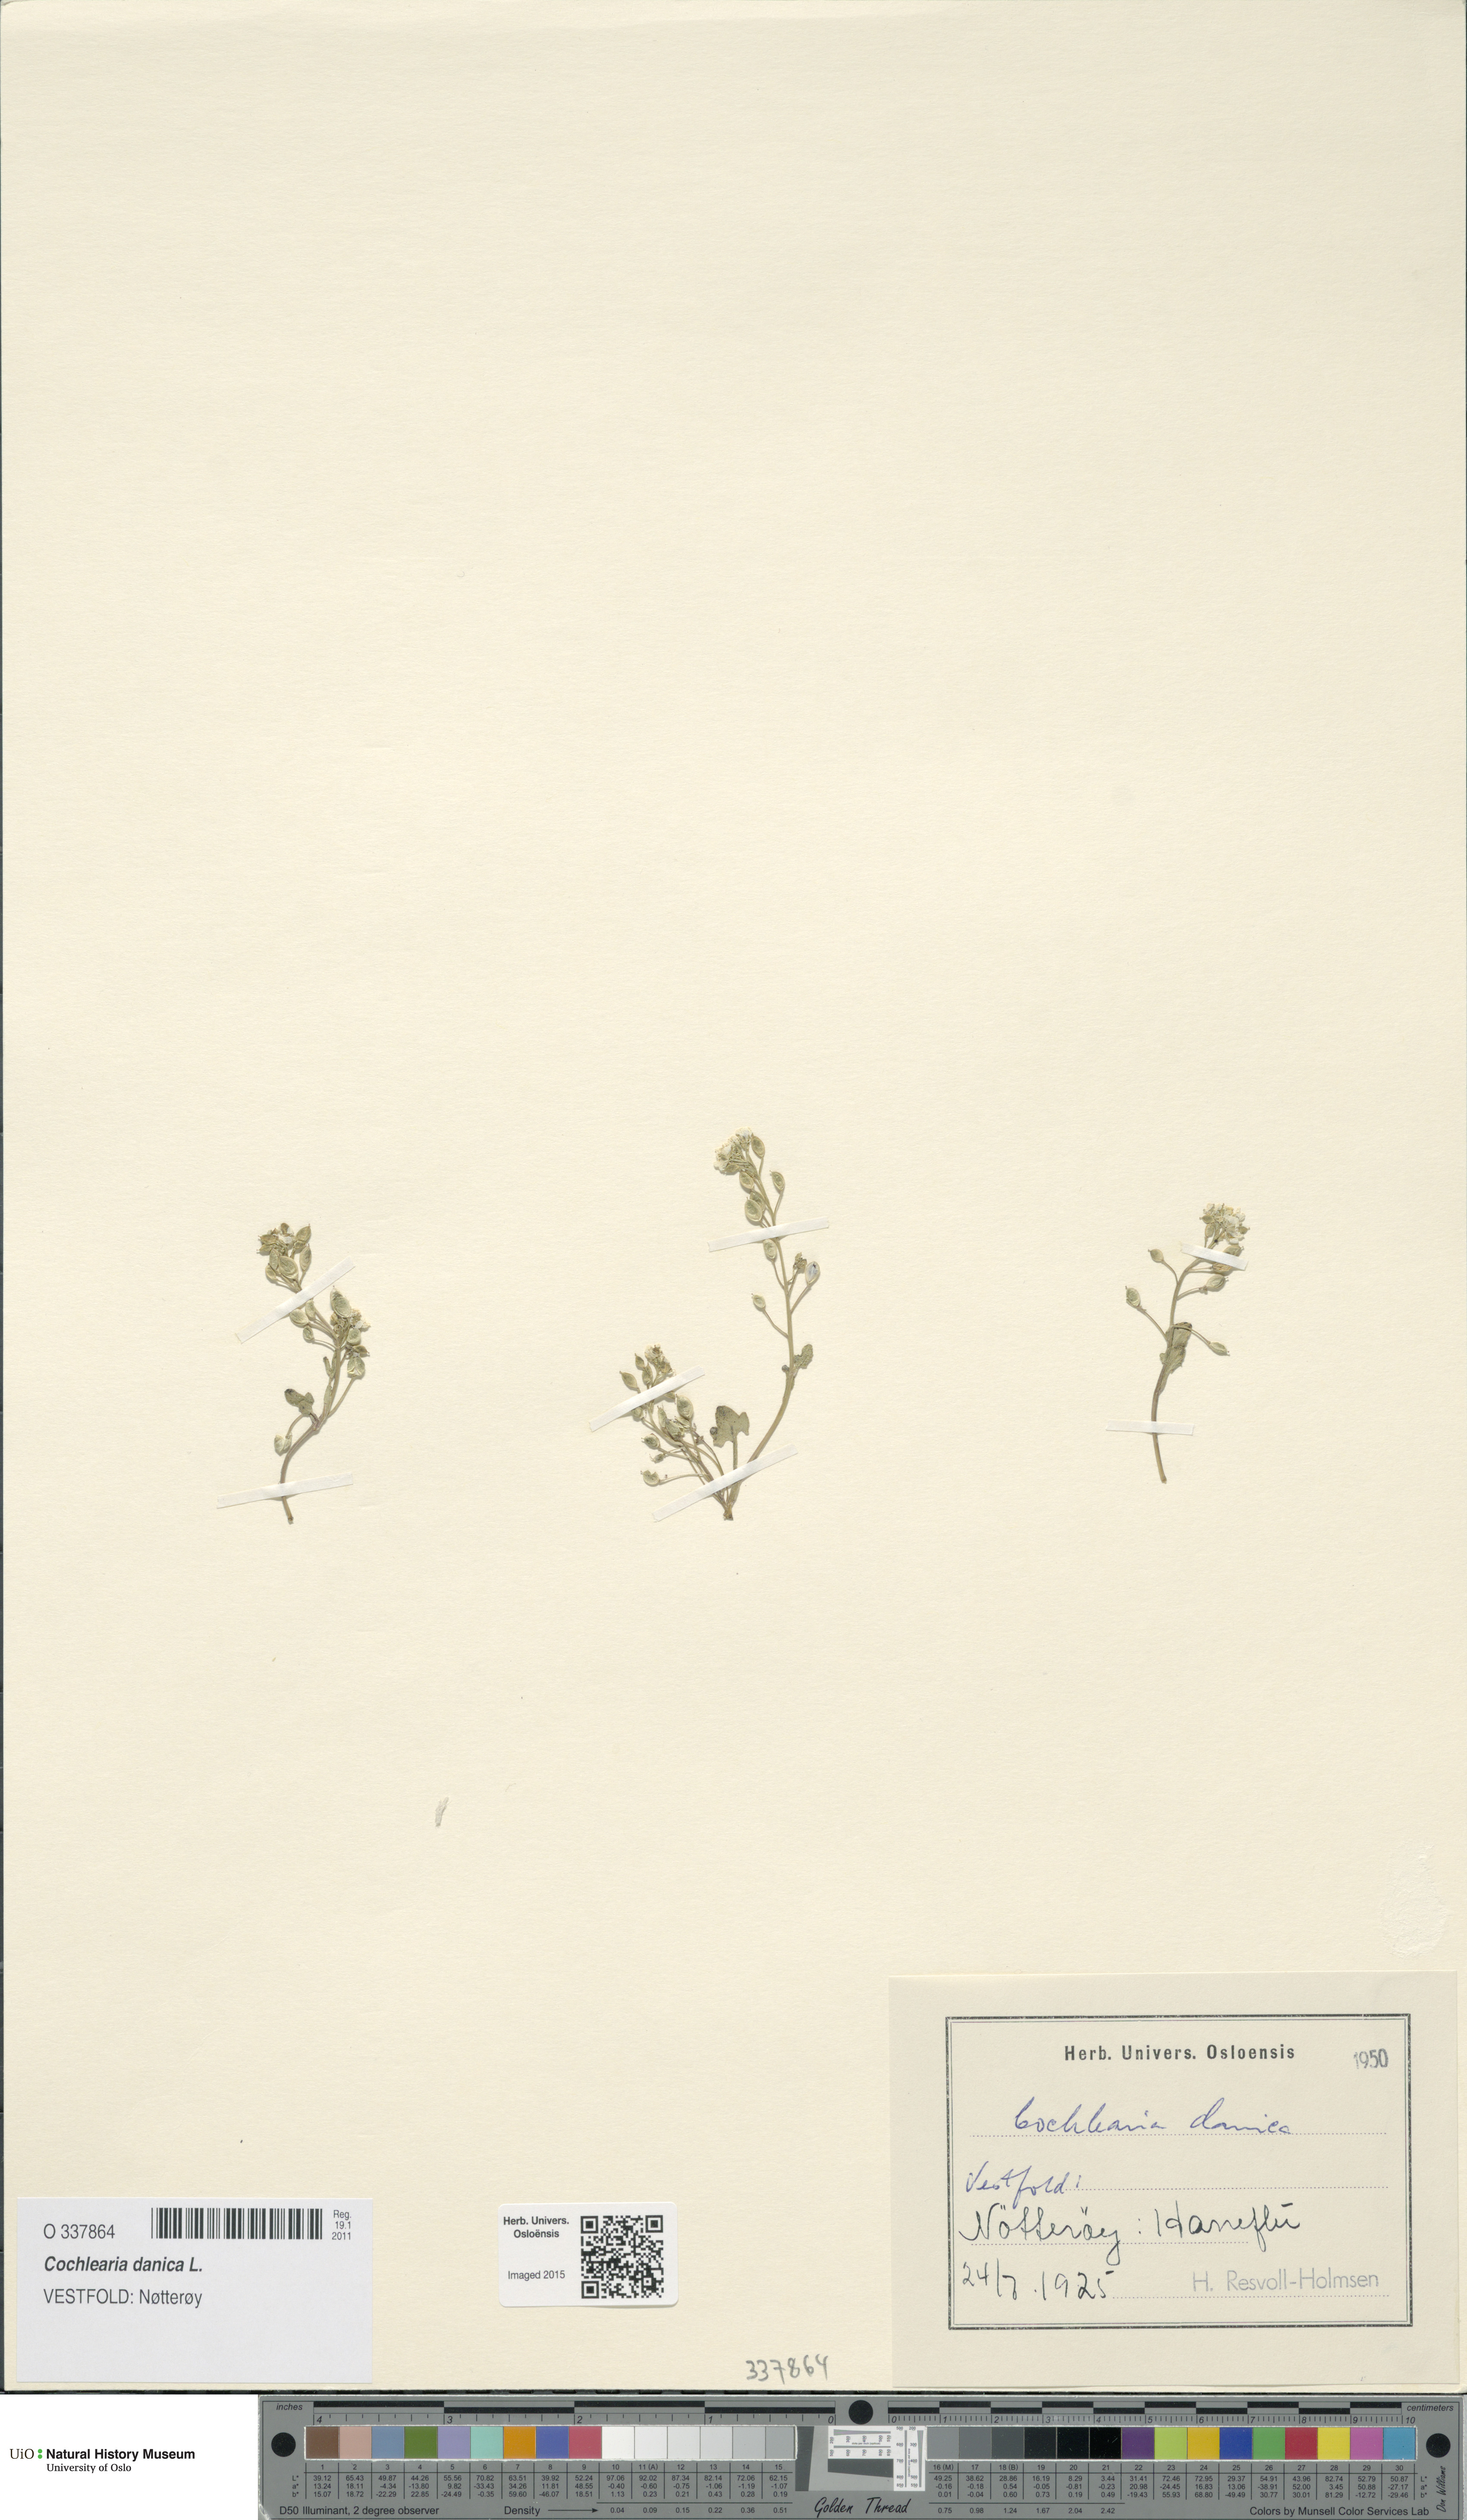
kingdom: Plantae
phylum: Tracheophyta
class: Magnoliopsida
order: Brassicales
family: Brassicaceae
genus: Cochlearia
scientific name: Cochlearia danica
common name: Early scurvygrass
